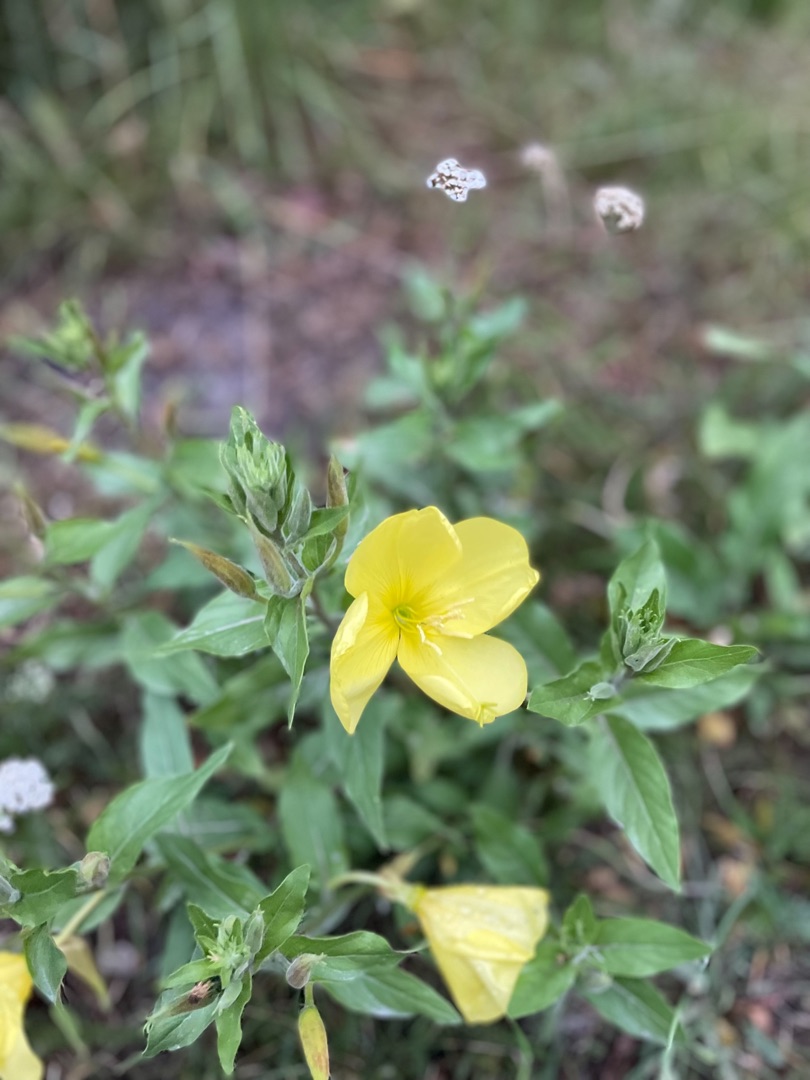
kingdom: Plantae
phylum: Tracheophyta
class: Magnoliopsida
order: Myrtales
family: Onagraceae
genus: Oenothera
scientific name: Oenothera
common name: Natlysslægten
